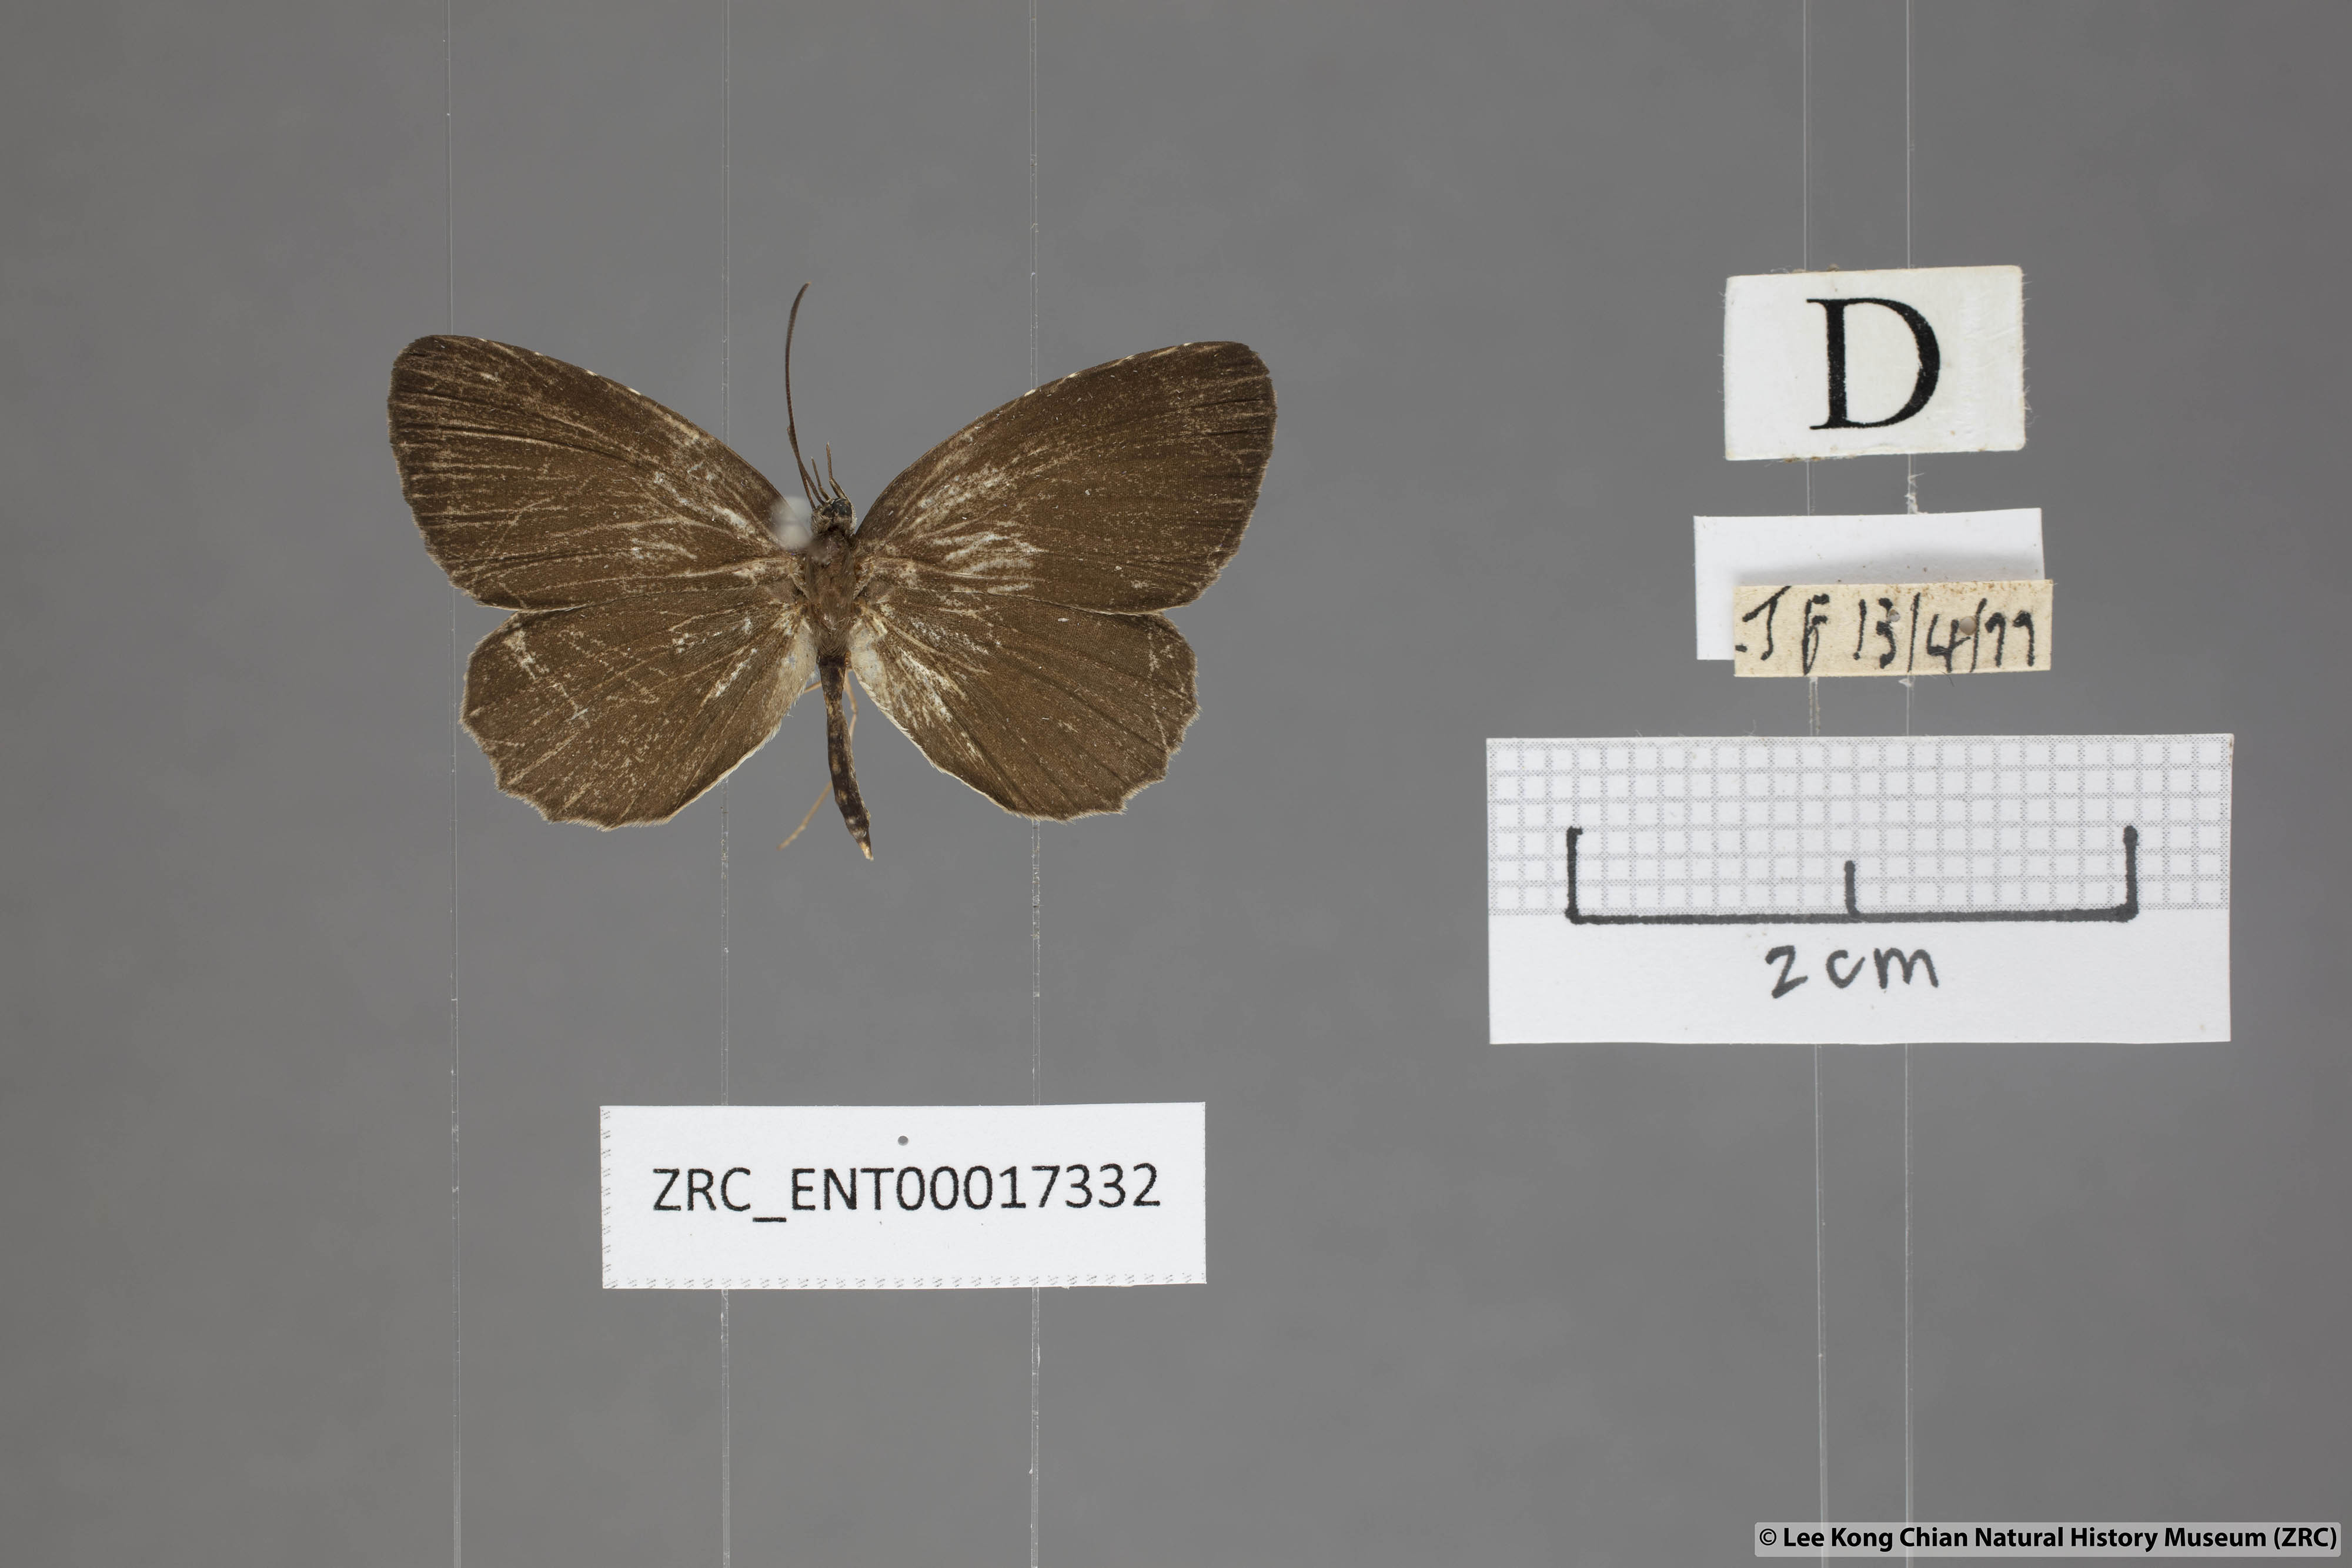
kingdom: Animalia
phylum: Arthropoda
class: Insecta
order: Lepidoptera
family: Lycaenidae
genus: Allotinus
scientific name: Allotinus sarastes
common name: Peninsular darkie
